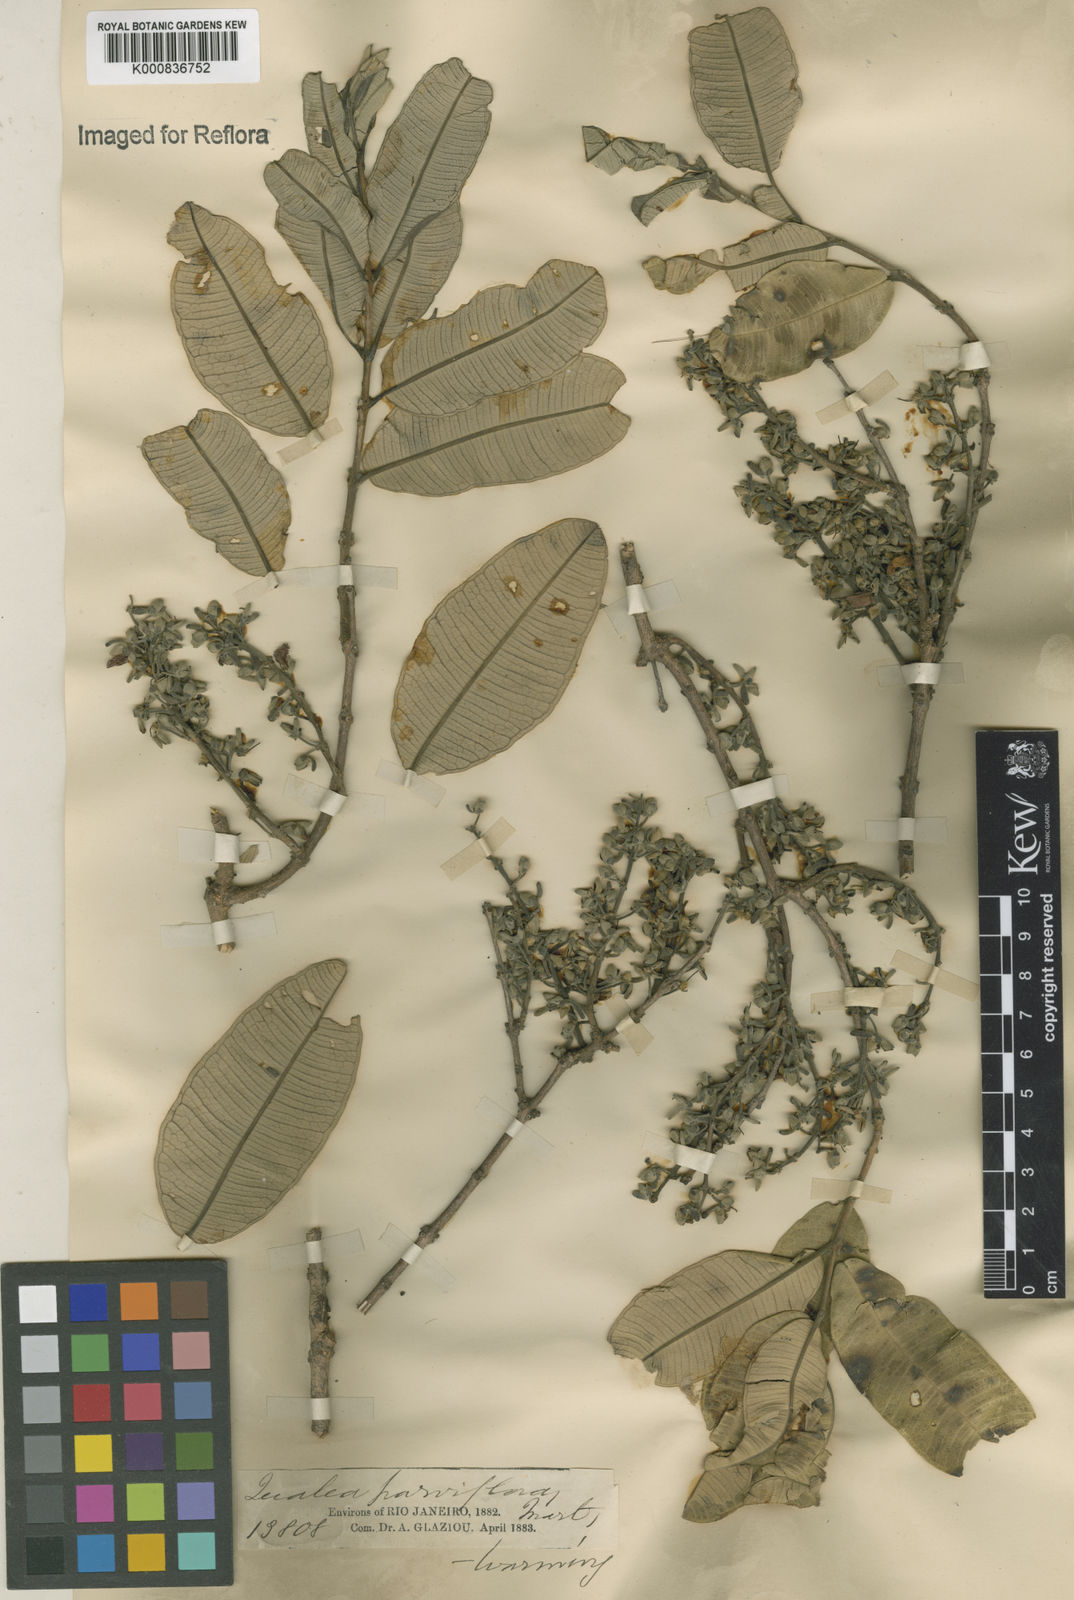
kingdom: Plantae
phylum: Tracheophyta
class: Magnoliopsida
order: Myrtales
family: Vochysiaceae
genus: Qualea
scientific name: Qualea parviflora
